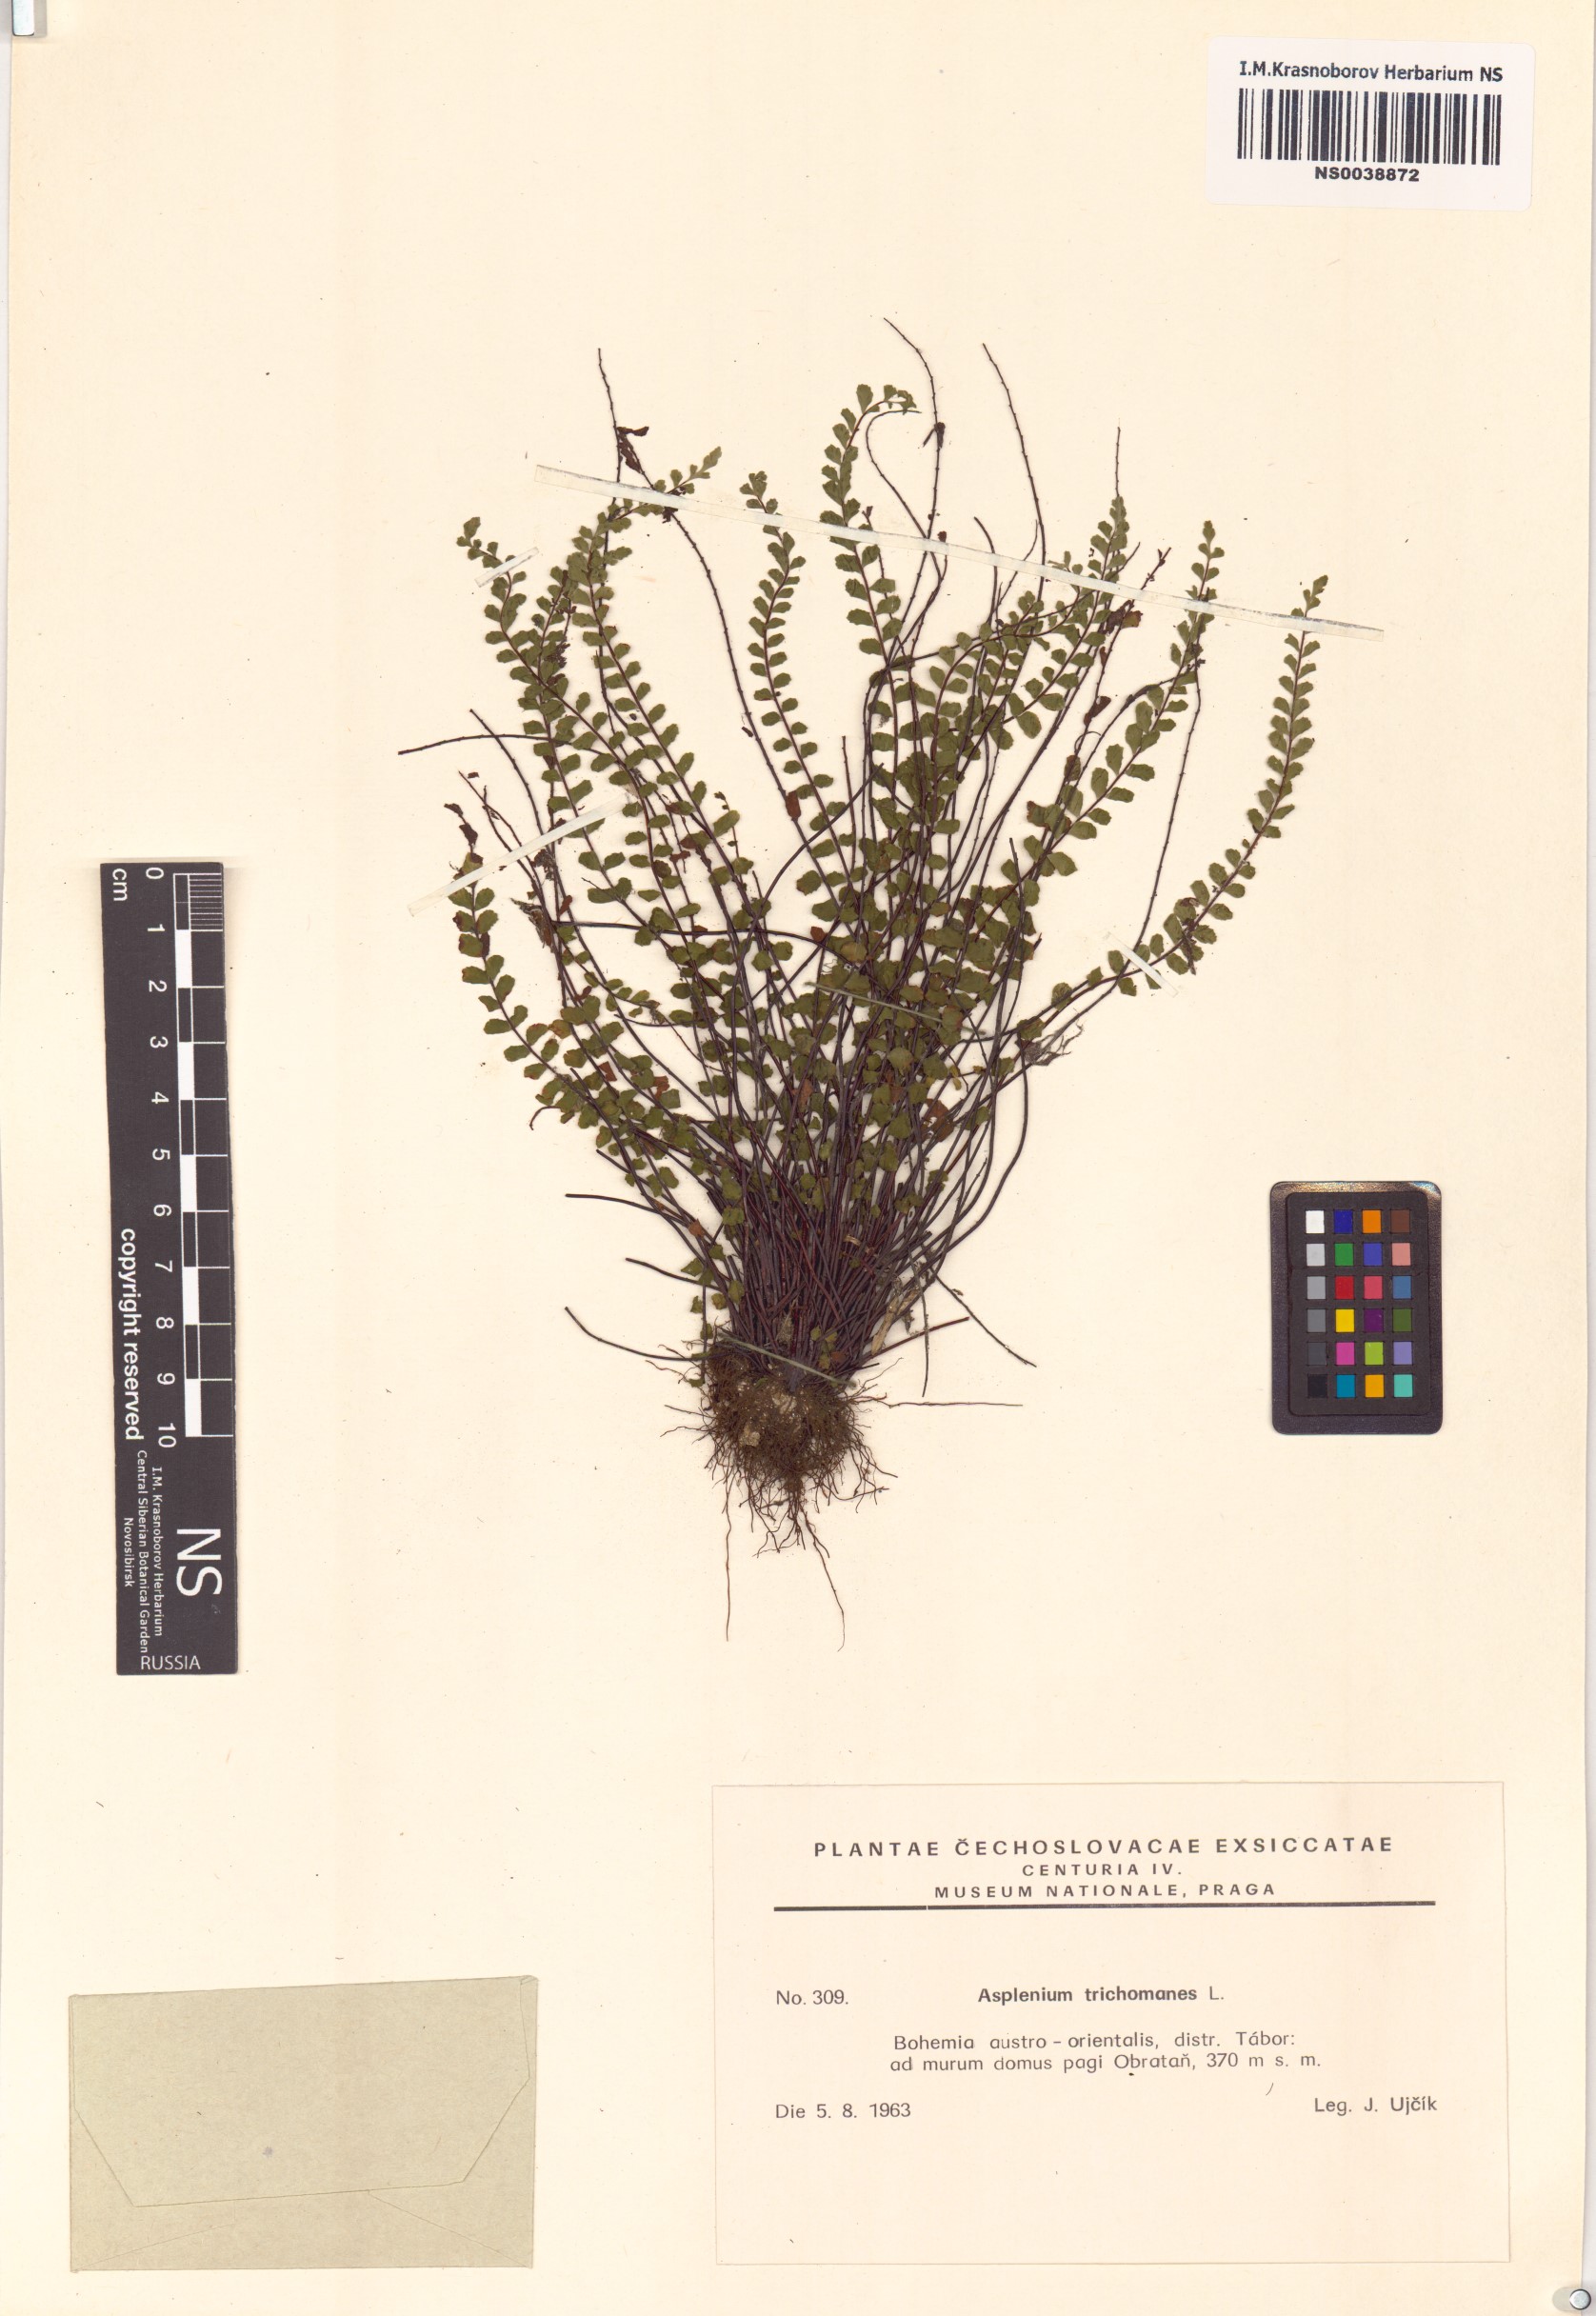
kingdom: Plantae
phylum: Tracheophyta
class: Polypodiopsida
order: Polypodiales
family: Aspleniaceae
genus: Asplenium
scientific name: Asplenium trichomanes
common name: Maidenhair spleenwort
